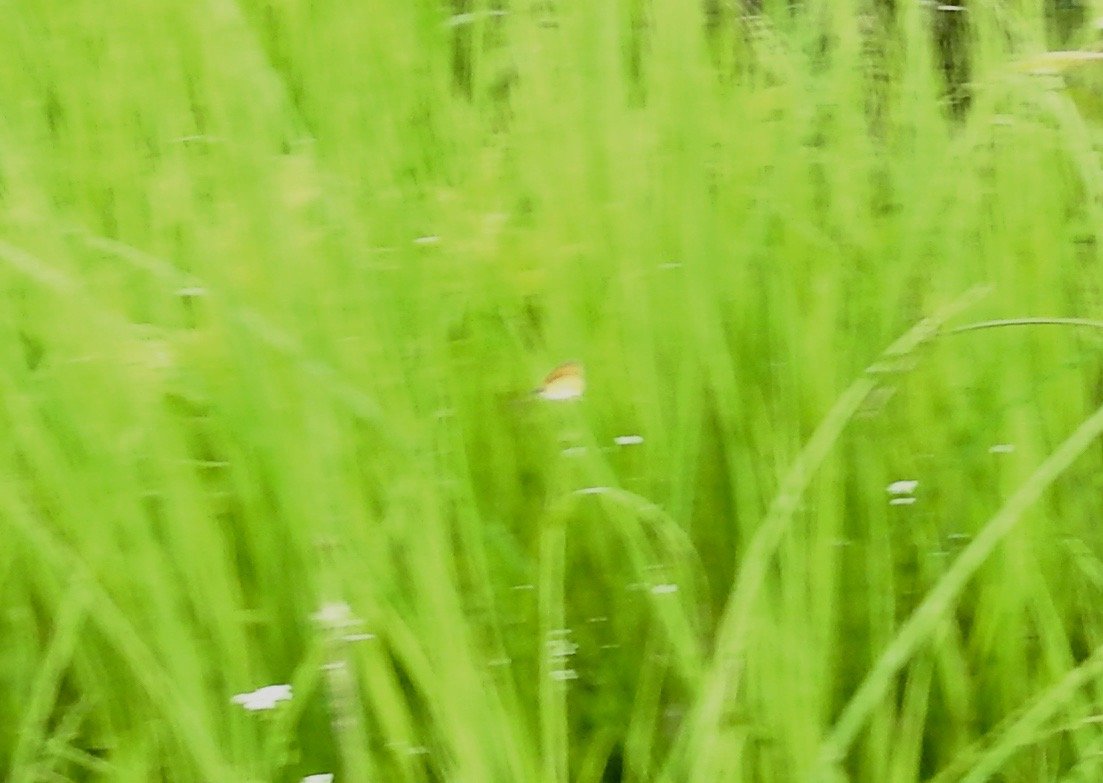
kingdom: Animalia
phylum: Arthropoda
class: Insecta
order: Lepidoptera
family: Hesperiidae
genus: Ancyloxypha
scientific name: Ancyloxypha numitor
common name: Least Skipper
